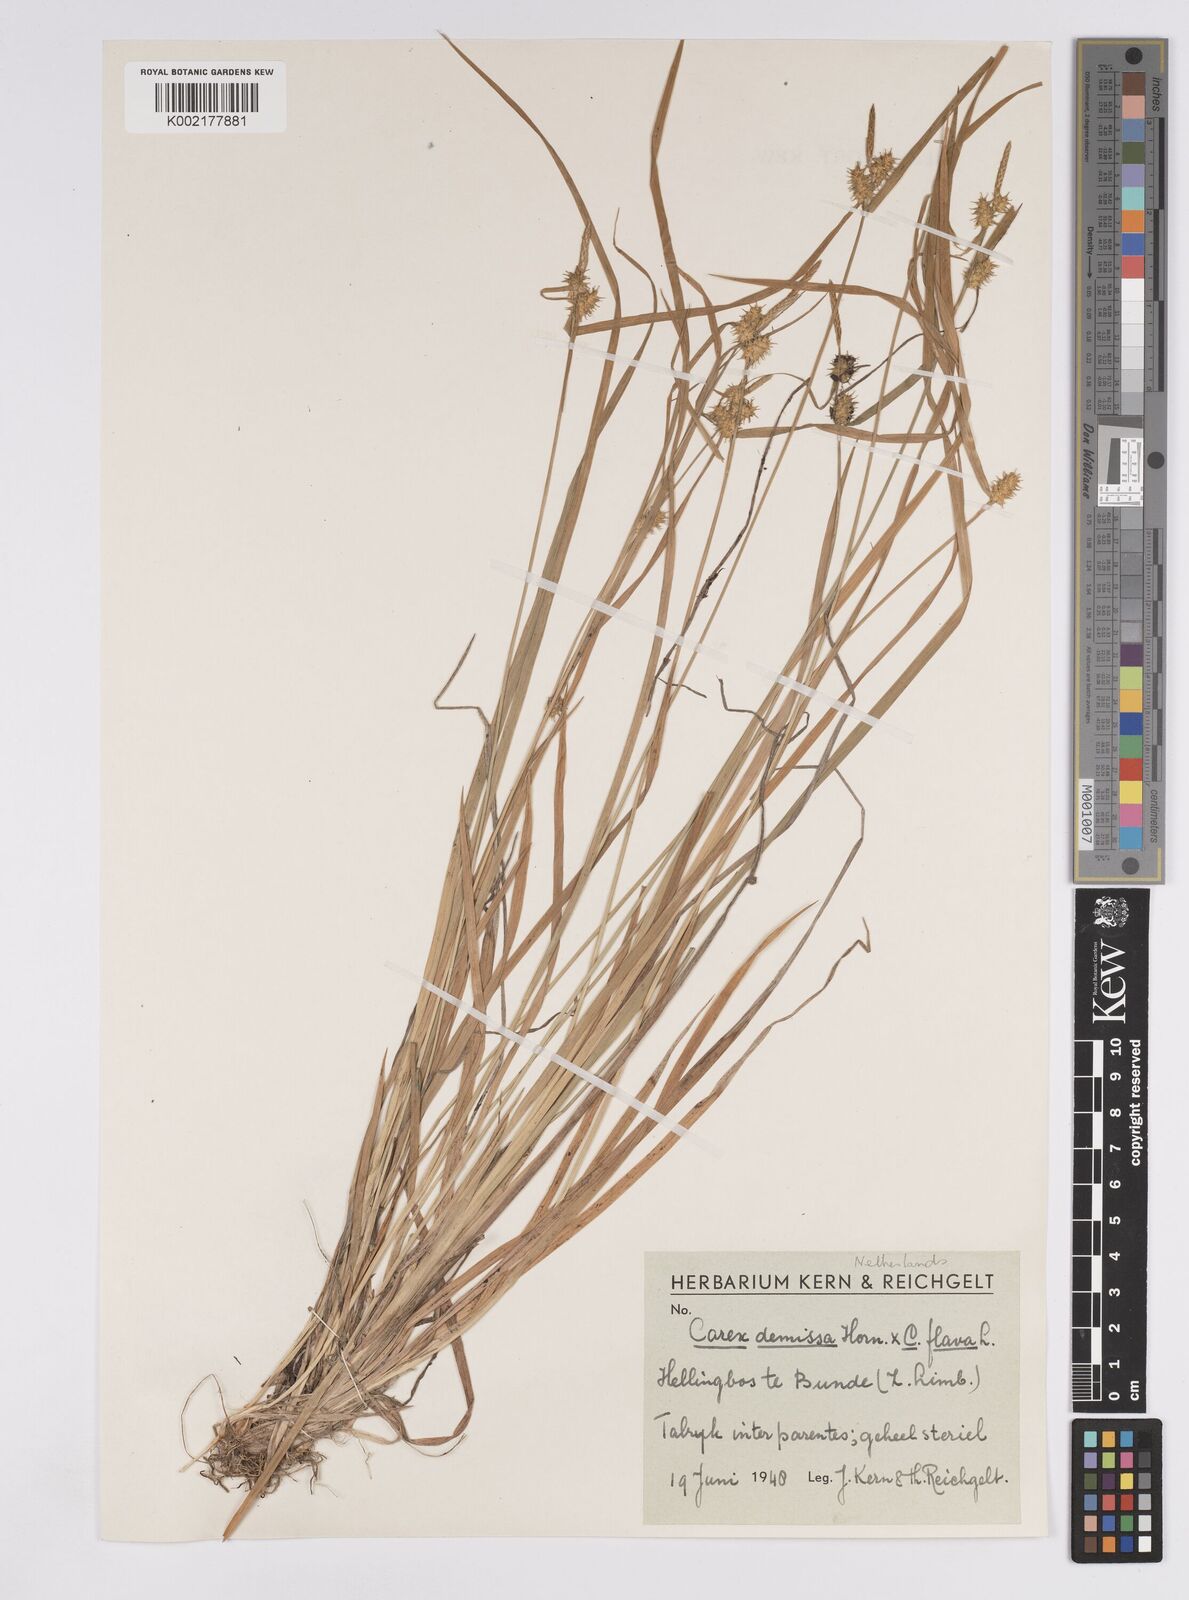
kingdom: Plantae
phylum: Tracheophyta
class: Liliopsida
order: Poales
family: Cyperaceae
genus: Carex
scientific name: Carex flava
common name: Large yellow-sedge
